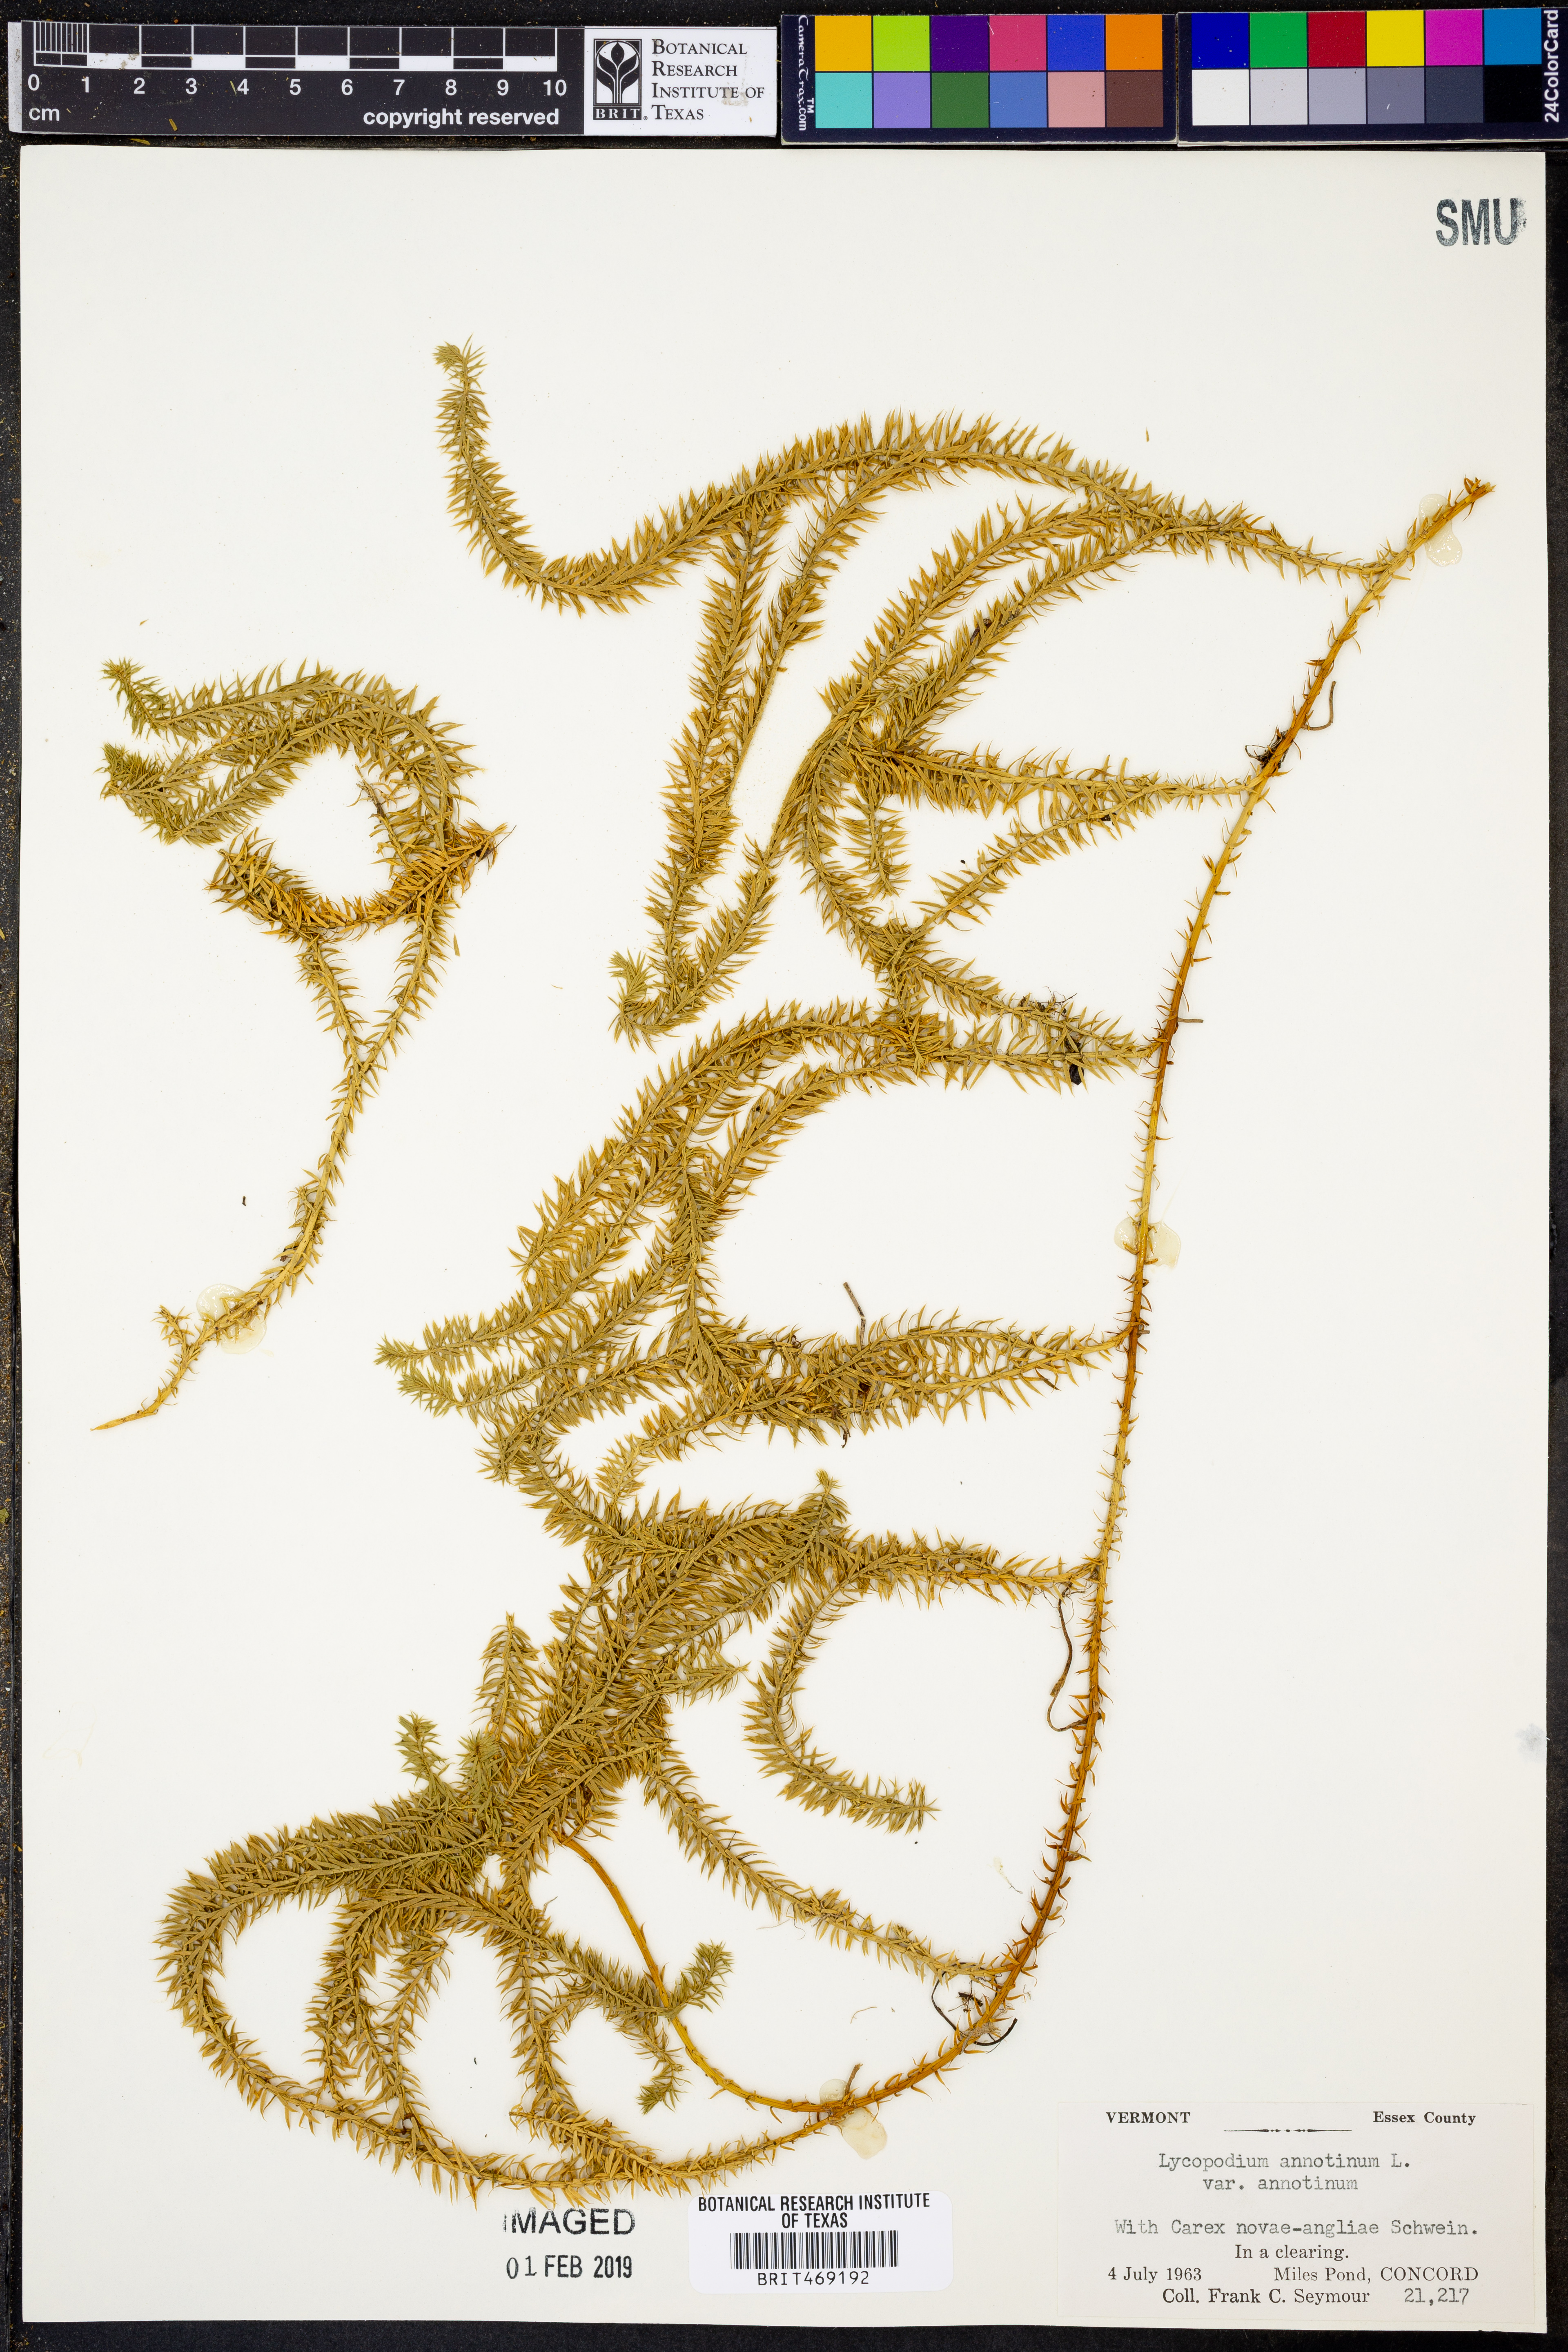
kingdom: Plantae
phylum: Tracheophyta
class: Lycopodiopsida
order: Lycopodiales
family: Lycopodiaceae
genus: Spinulum
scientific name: Spinulum annotinum
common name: Interrupted club-moss
